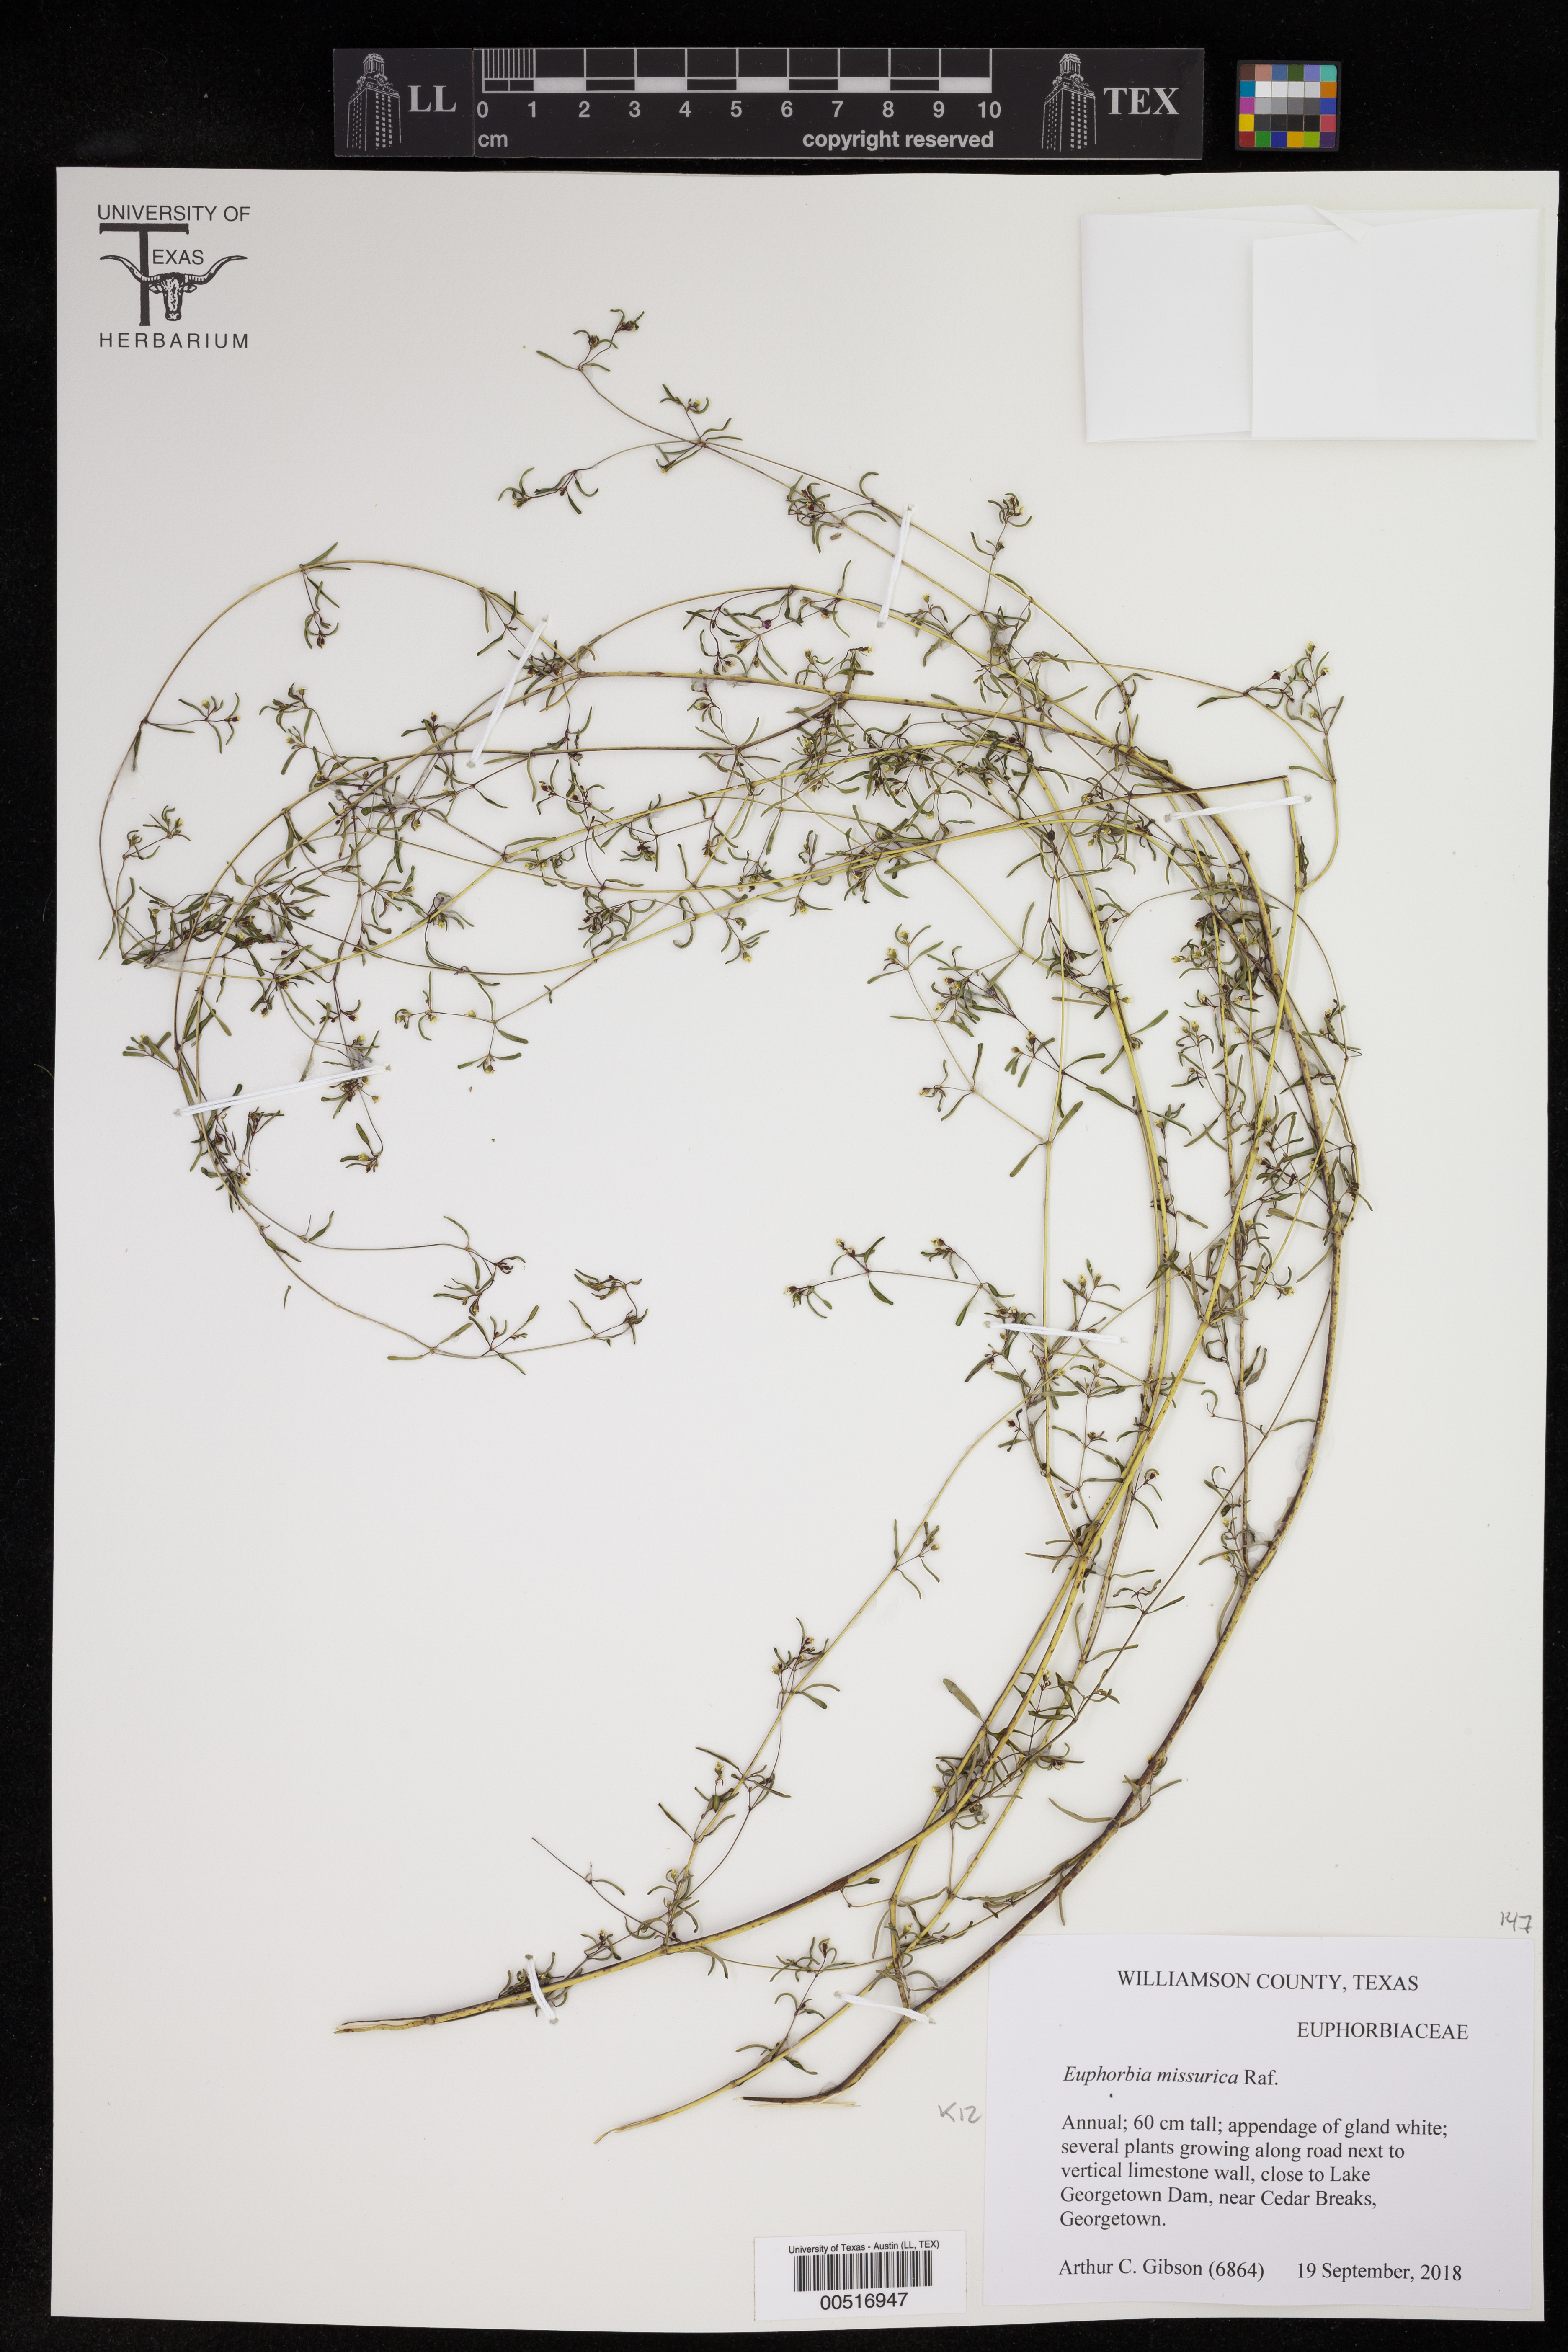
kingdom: Plantae
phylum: Tracheophyta
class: Magnoliopsida
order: Malpighiales
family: Euphorbiaceae
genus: Euphorbia
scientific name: Euphorbia missurica
